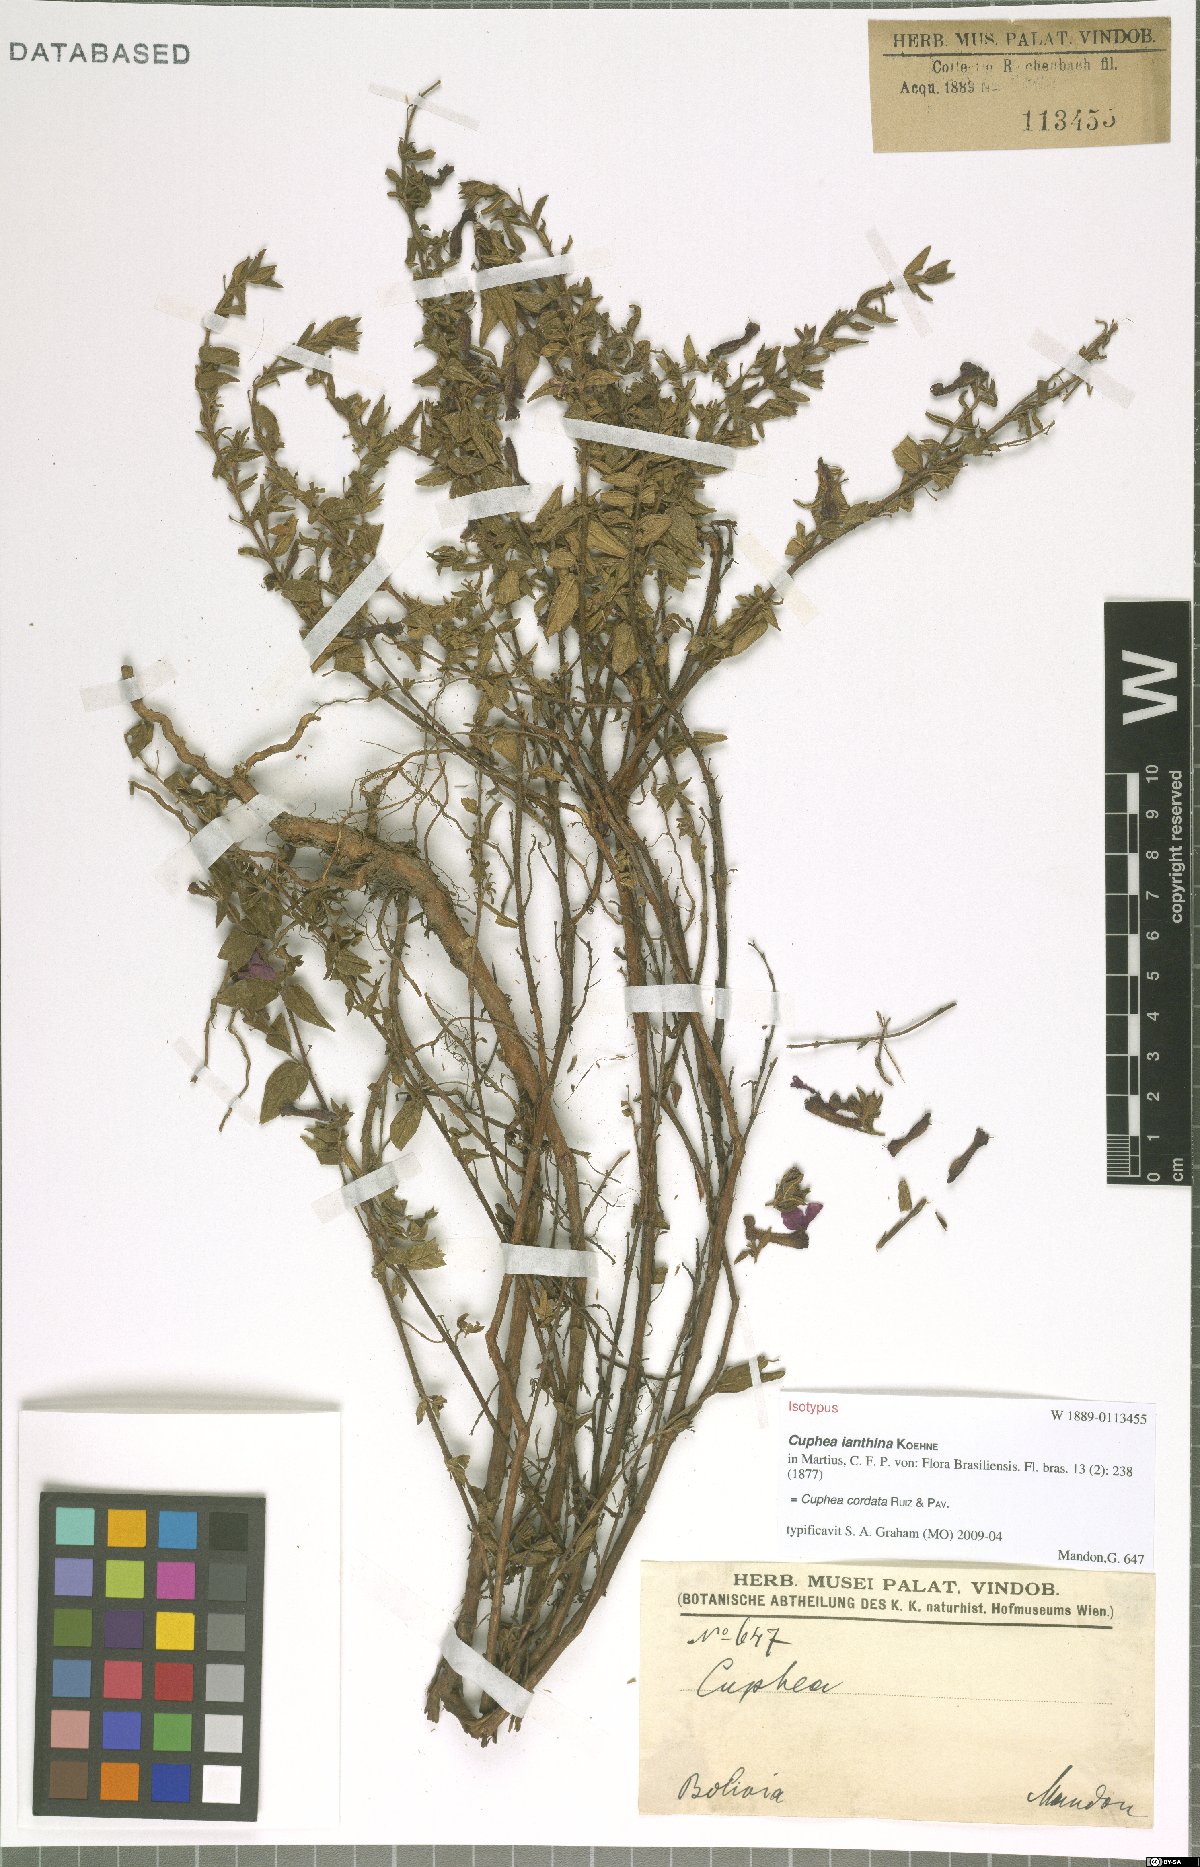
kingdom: Plantae
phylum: Tracheophyta
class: Magnoliopsida
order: Myrtales
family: Lythraceae
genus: Cuphea
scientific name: Cuphea cordata
